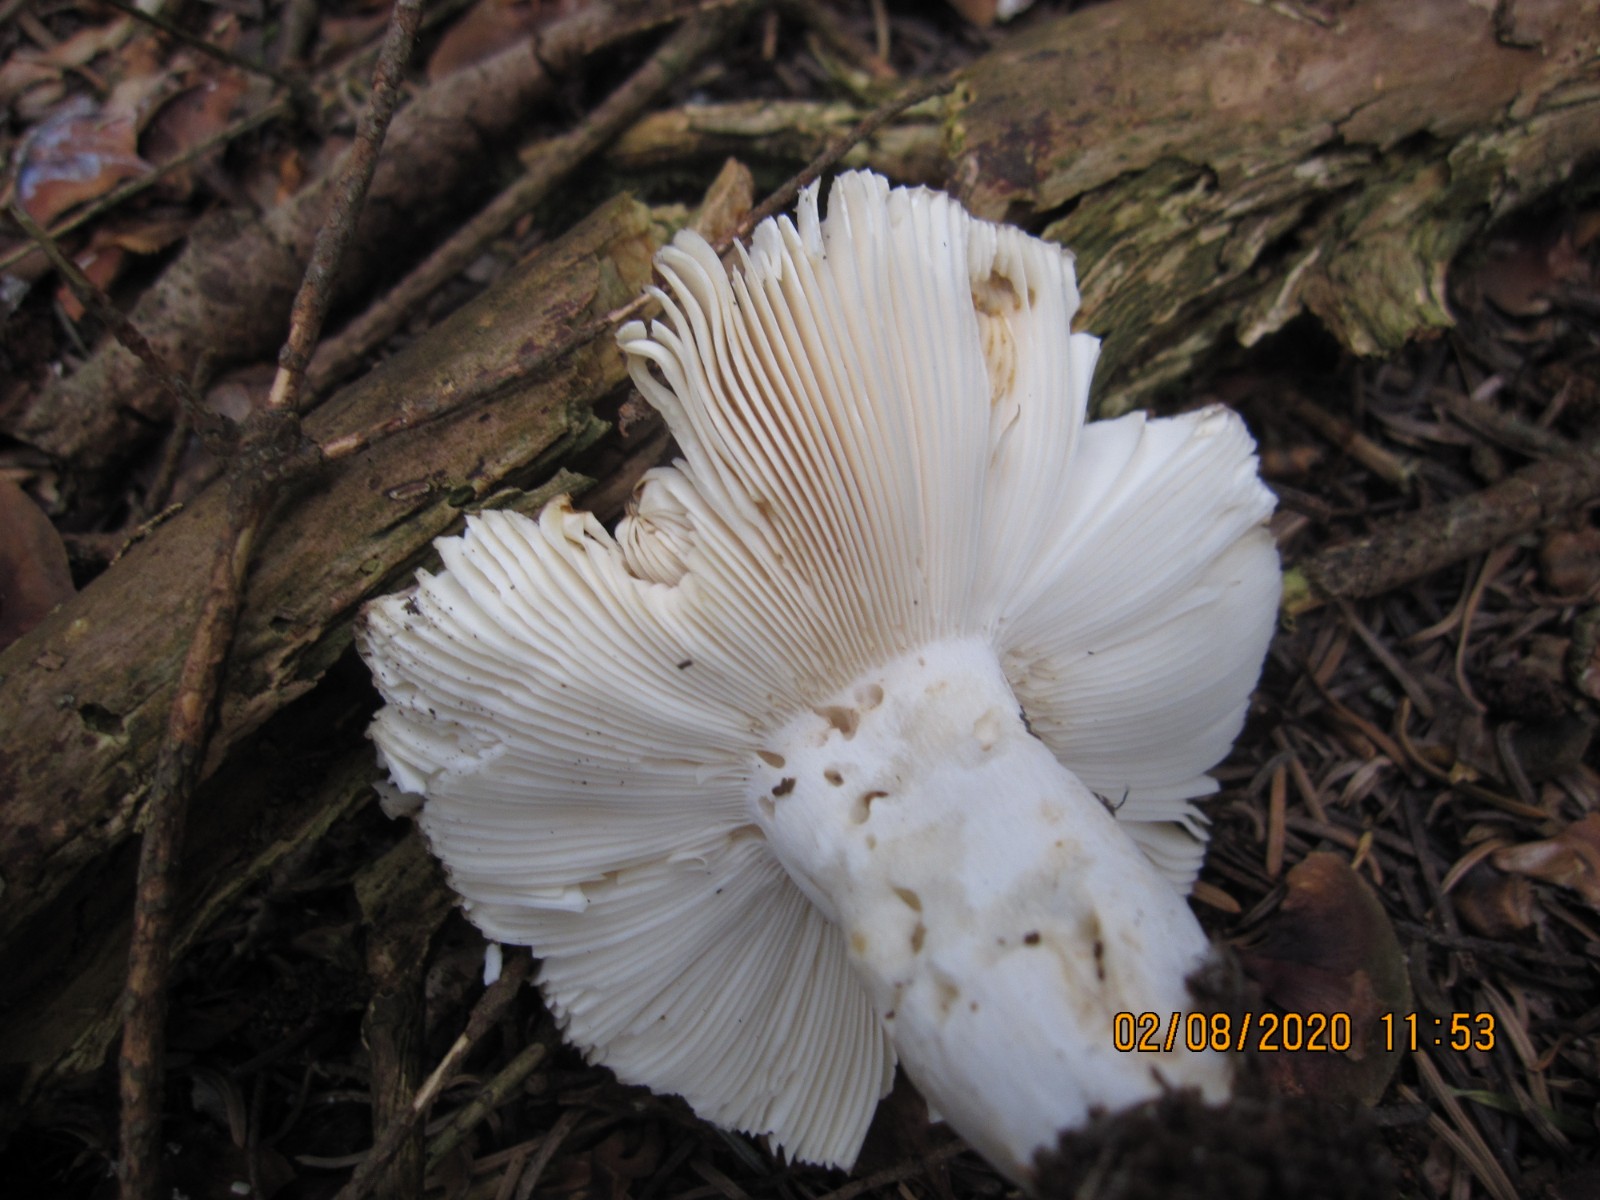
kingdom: Fungi
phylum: Basidiomycota
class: Agaricomycetes
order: Russulales
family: Russulaceae
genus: Russula
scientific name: Russula ionochlora
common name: violetgrøn skørhat
